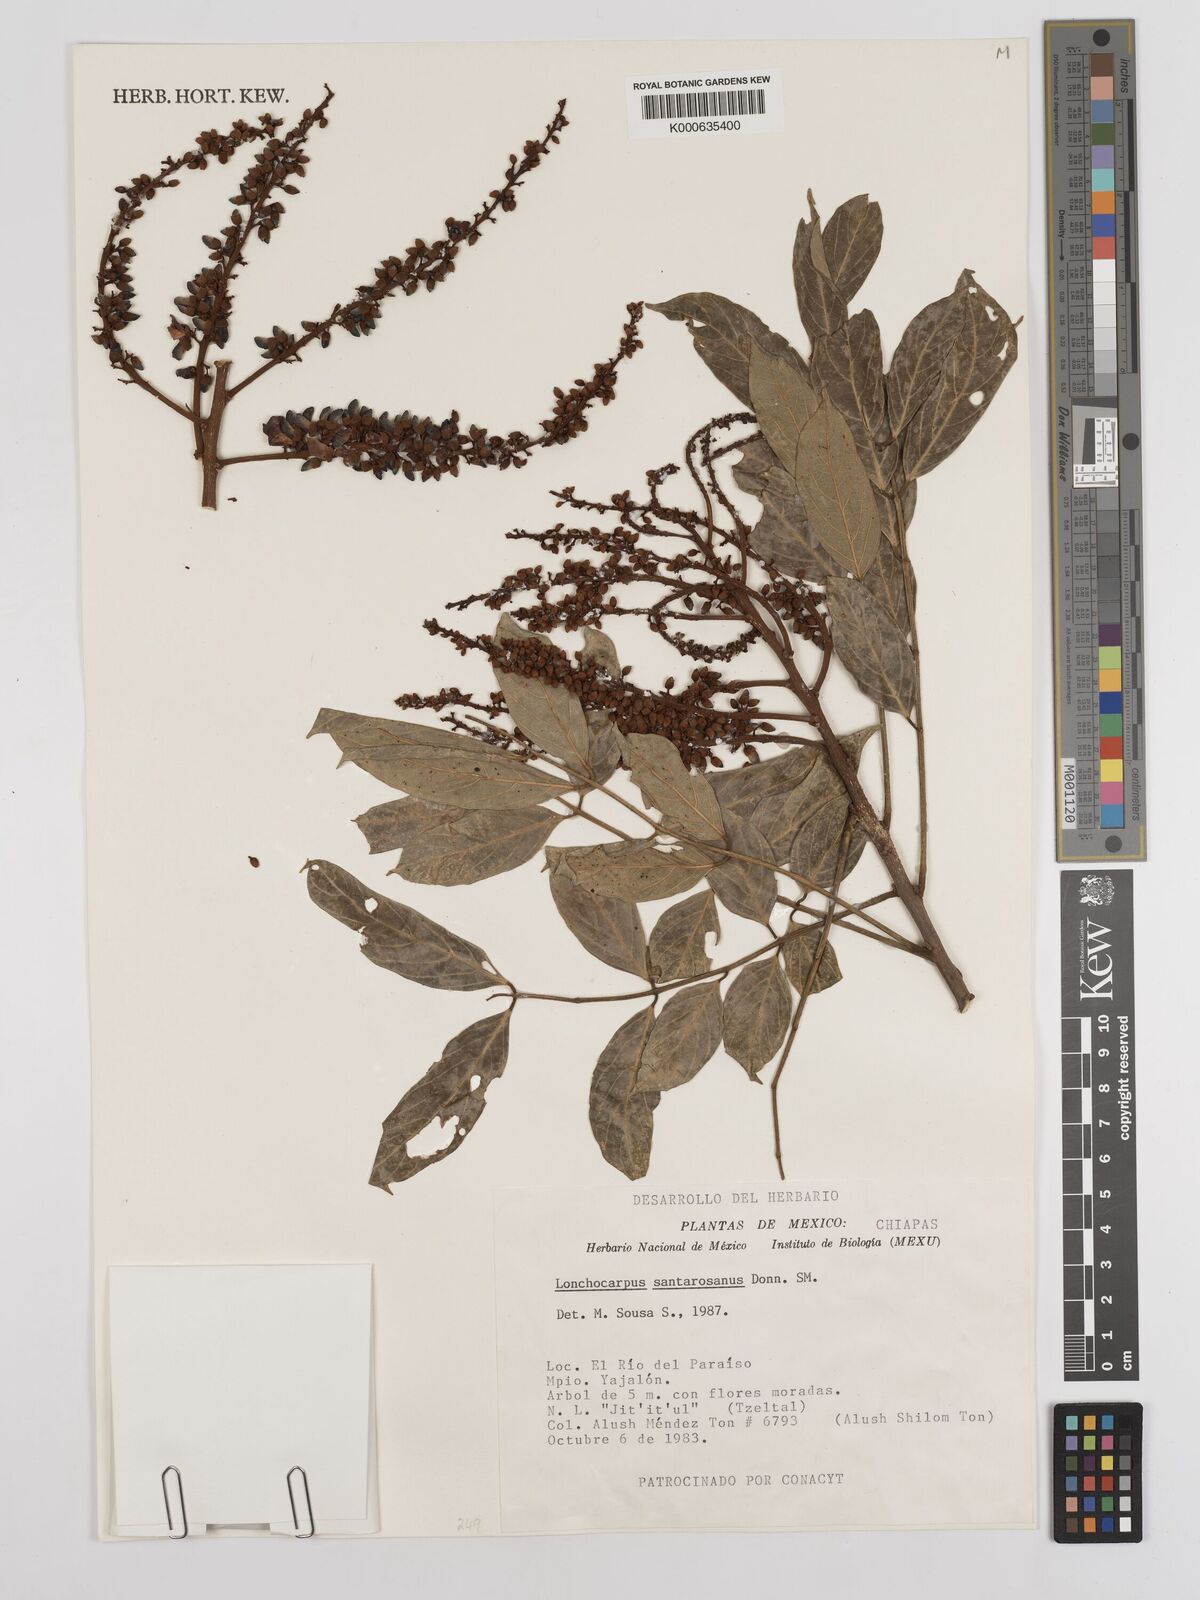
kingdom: Plantae
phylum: Tracheophyta
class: Magnoliopsida
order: Fabales
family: Fabaceae
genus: Lonchocarpus
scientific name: Lonchocarpus santarosanus
